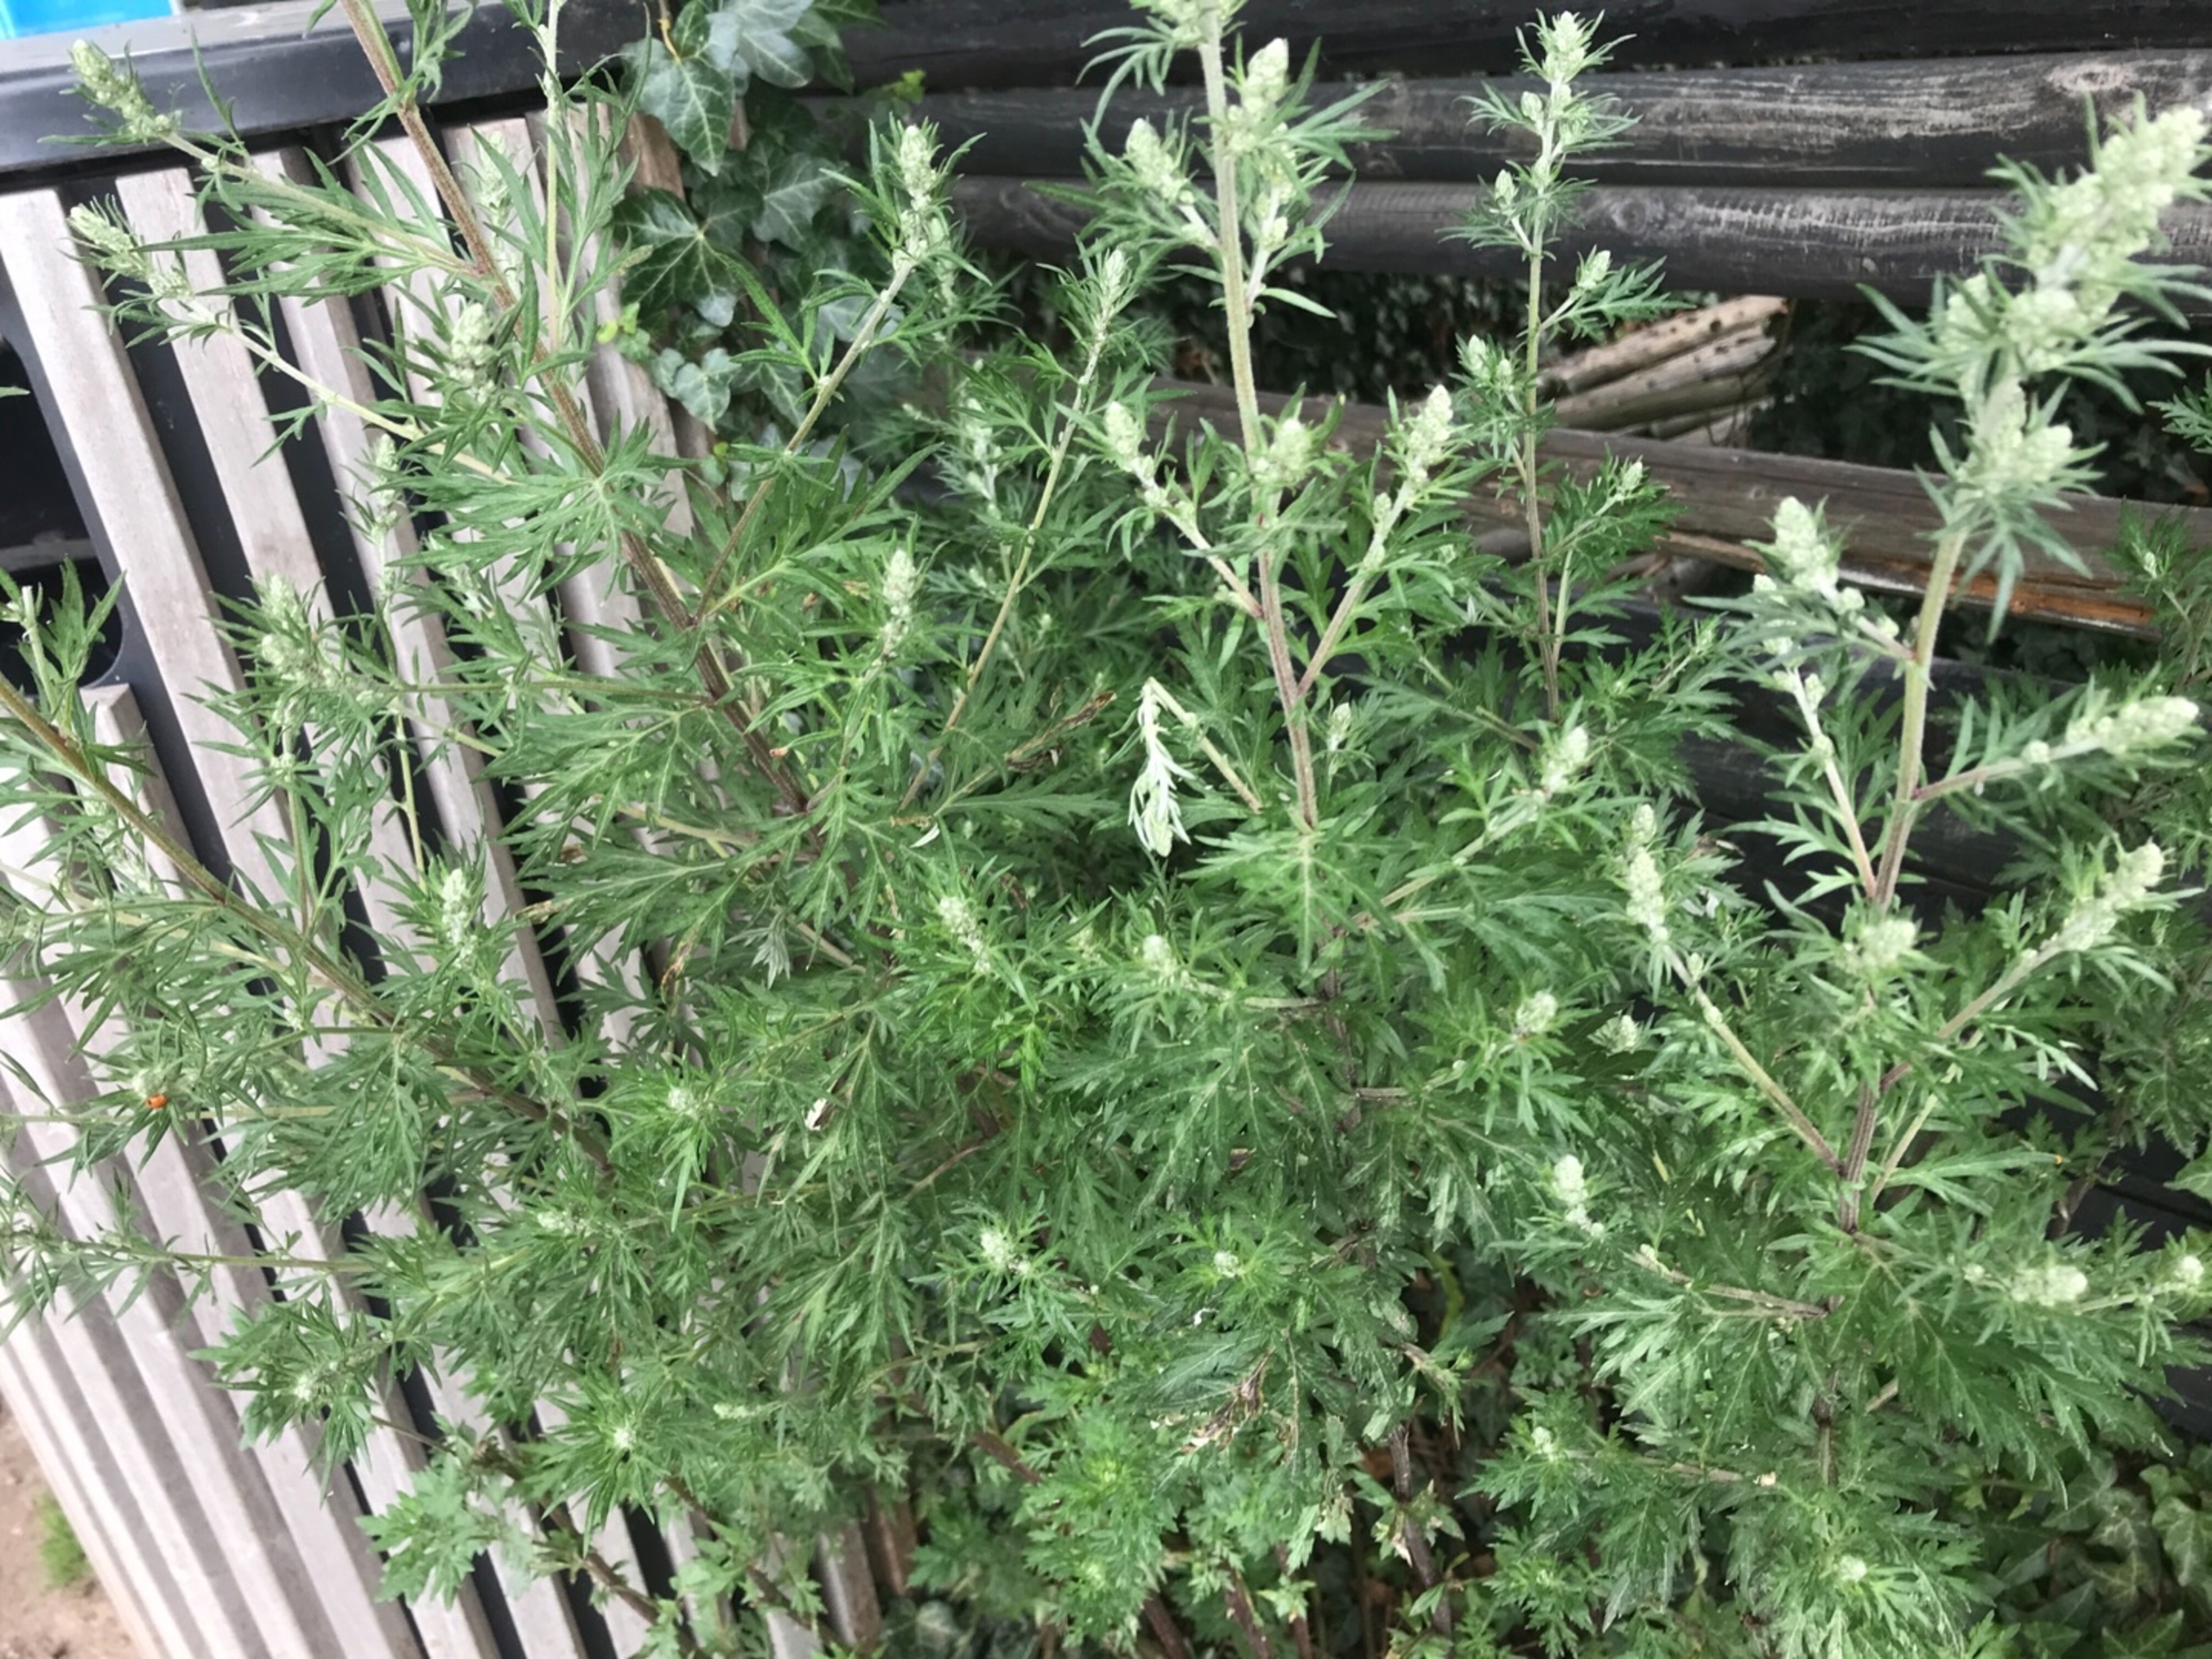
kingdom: Plantae
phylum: Tracheophyta
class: Magnoliopsida
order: Asterales
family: Asteraceae
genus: Artemisia
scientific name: Artemisia vulgaris
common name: Grå-bynke
